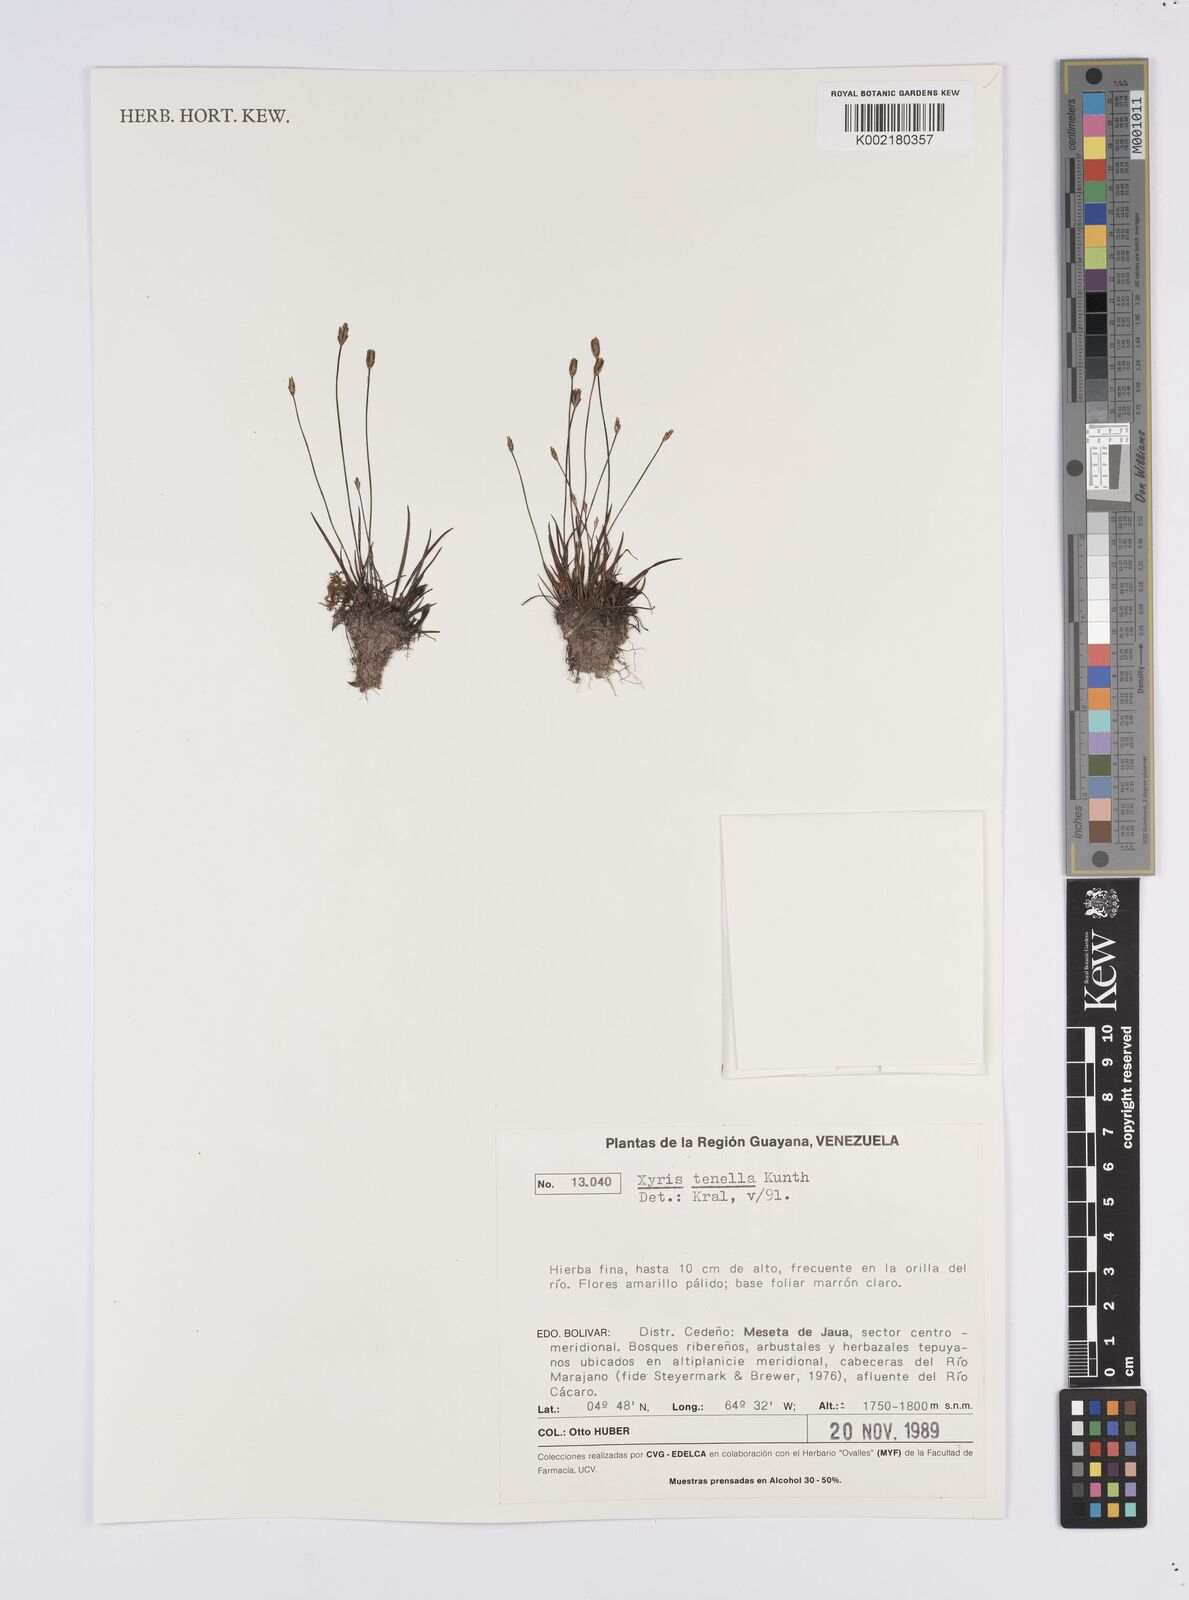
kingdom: Plantae
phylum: Tracheophyta
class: Liliopsida
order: Poales
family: Xyridaceae
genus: Xyris
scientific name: Xyris tenella
